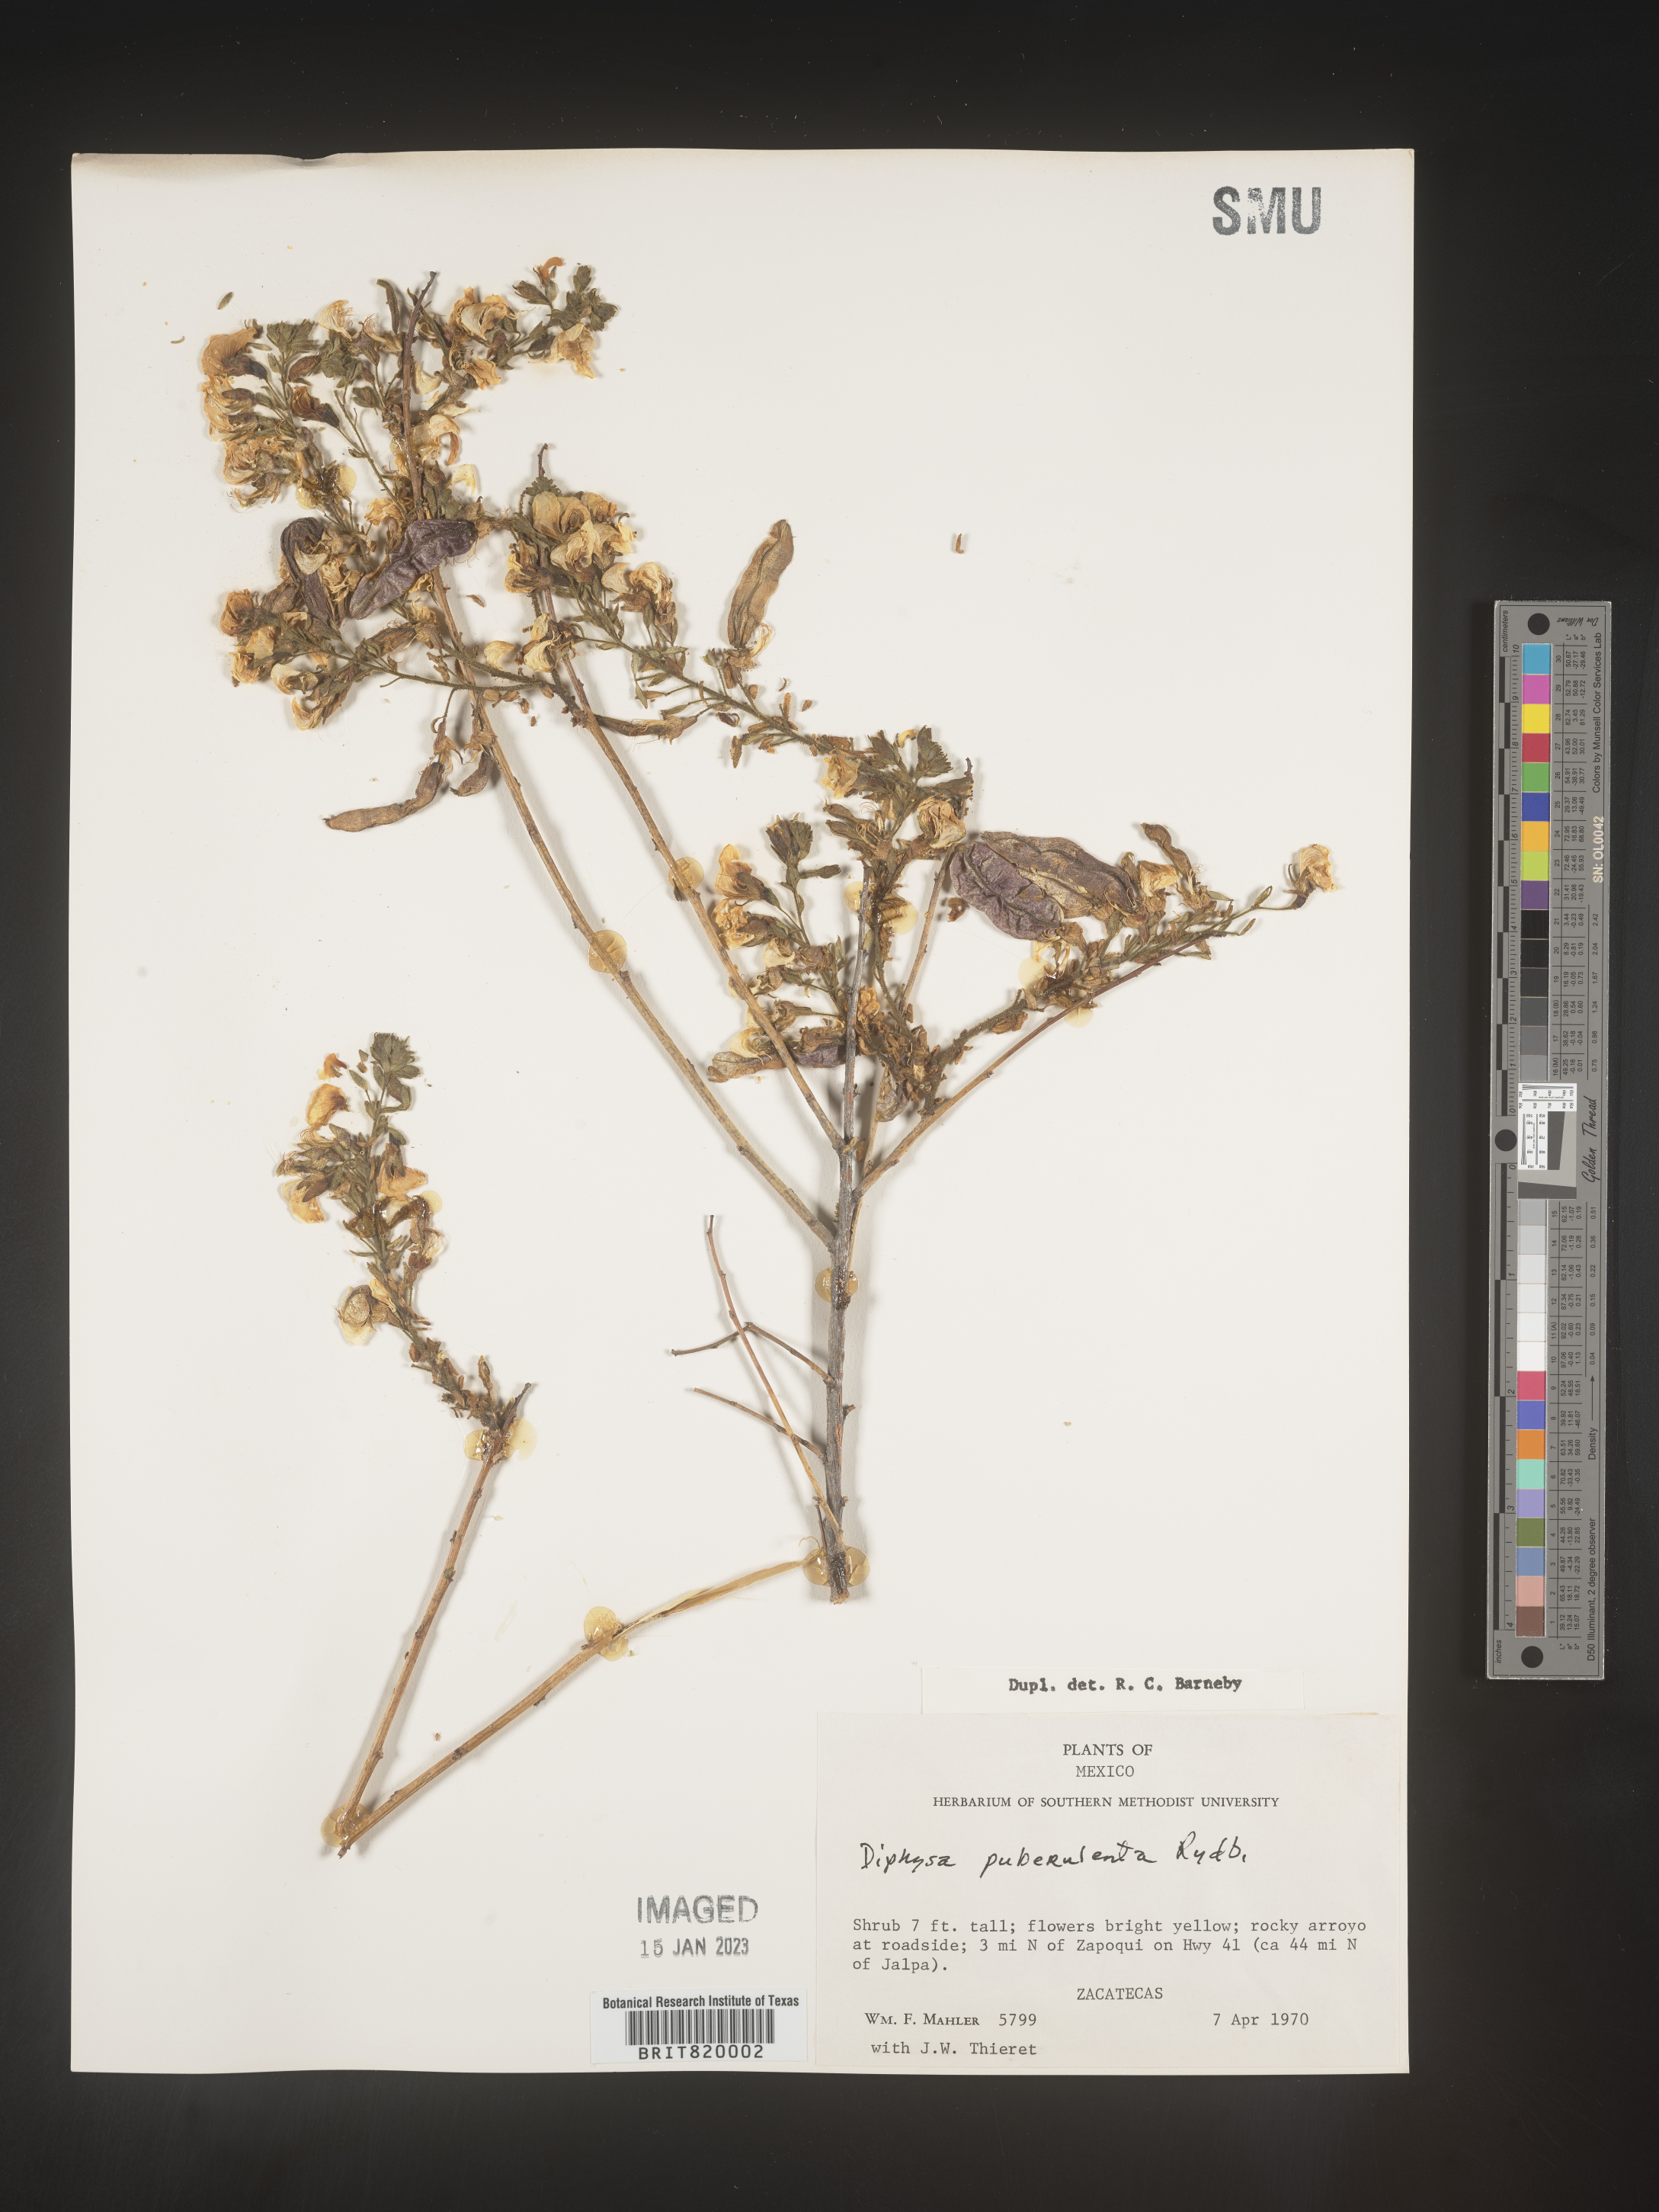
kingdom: Plantae
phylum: Tracheophyta
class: Magnoliopsida
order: Fabales
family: Fabaceae
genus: Diphysa
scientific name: Diphysa
